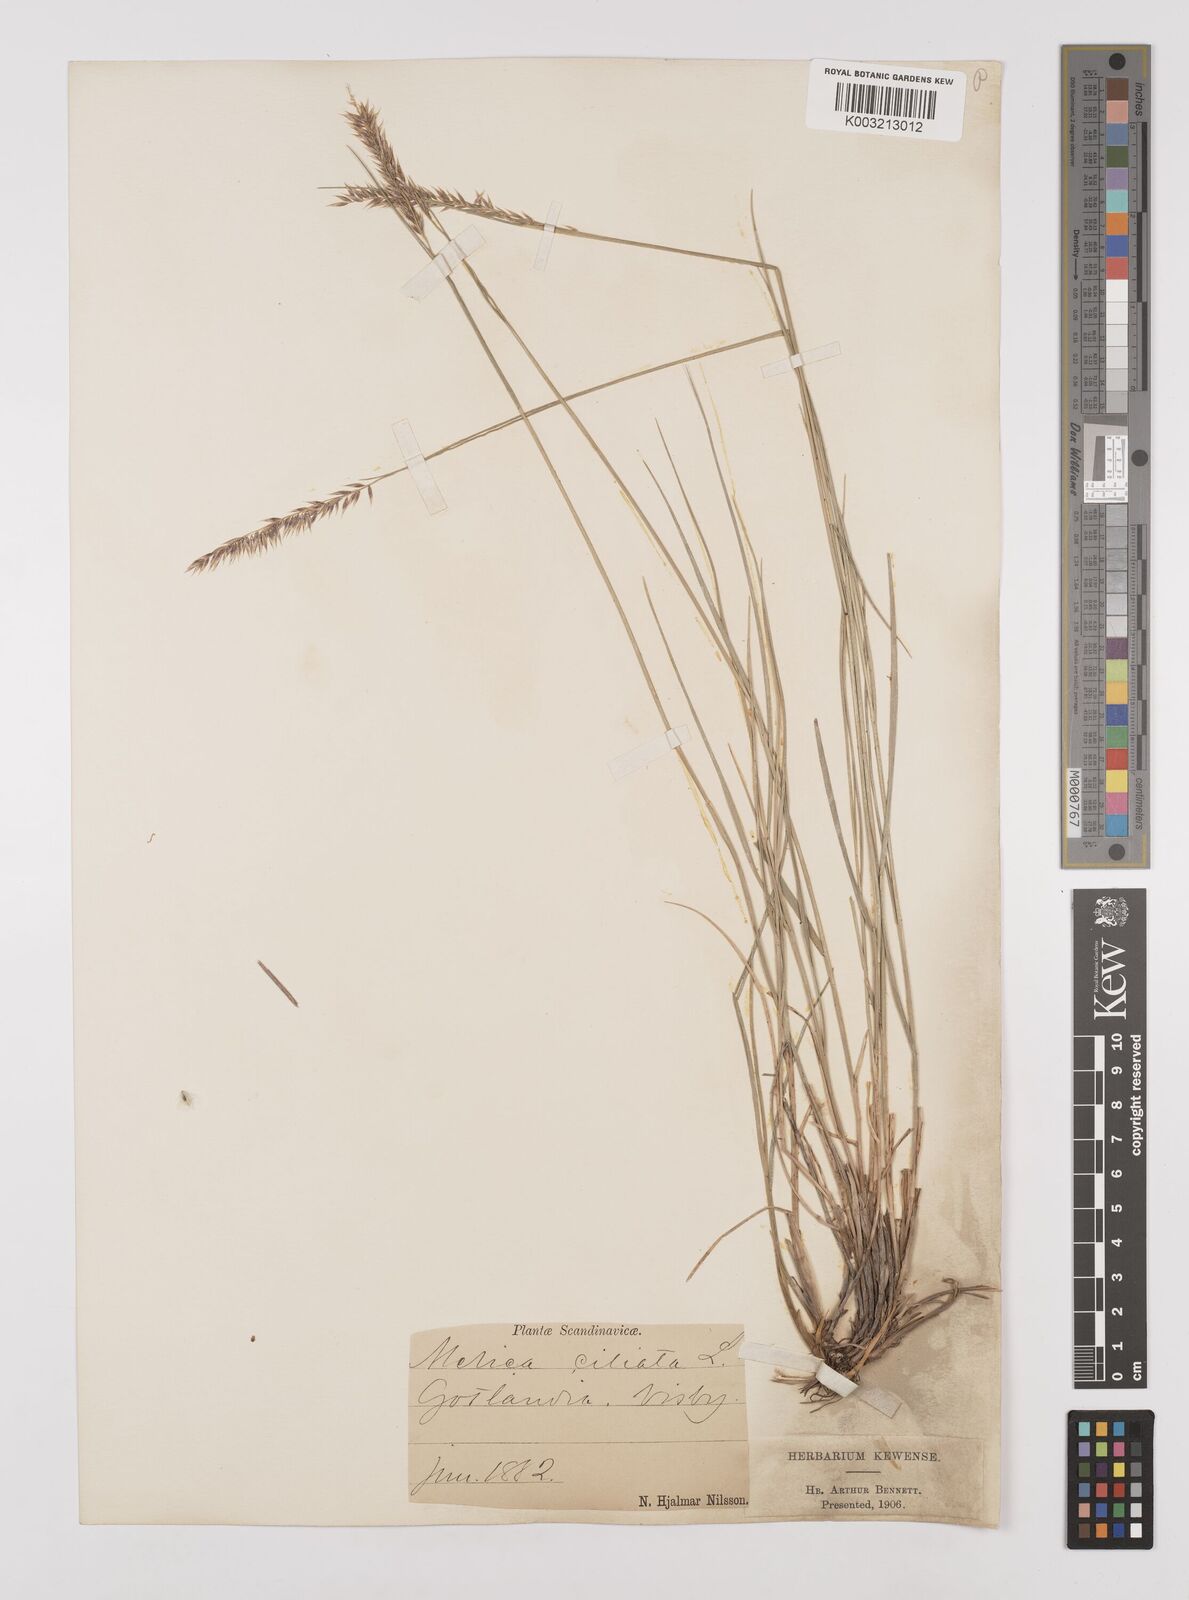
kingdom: Plantae
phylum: Tracheophyta
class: Liliopsida
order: Poales
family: Poaceae
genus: Melica
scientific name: Melica ciliata
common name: Hairy melicgrass
